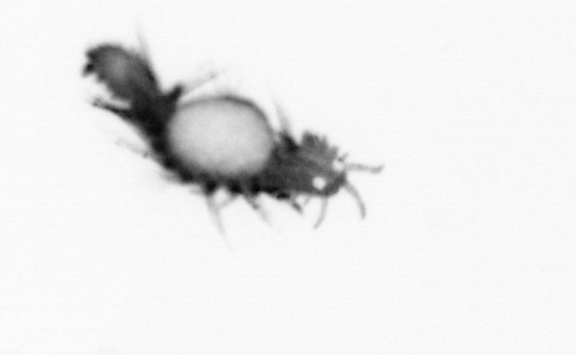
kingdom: Animalia
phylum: Annelida
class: Polychaeta
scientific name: Polychaeta
